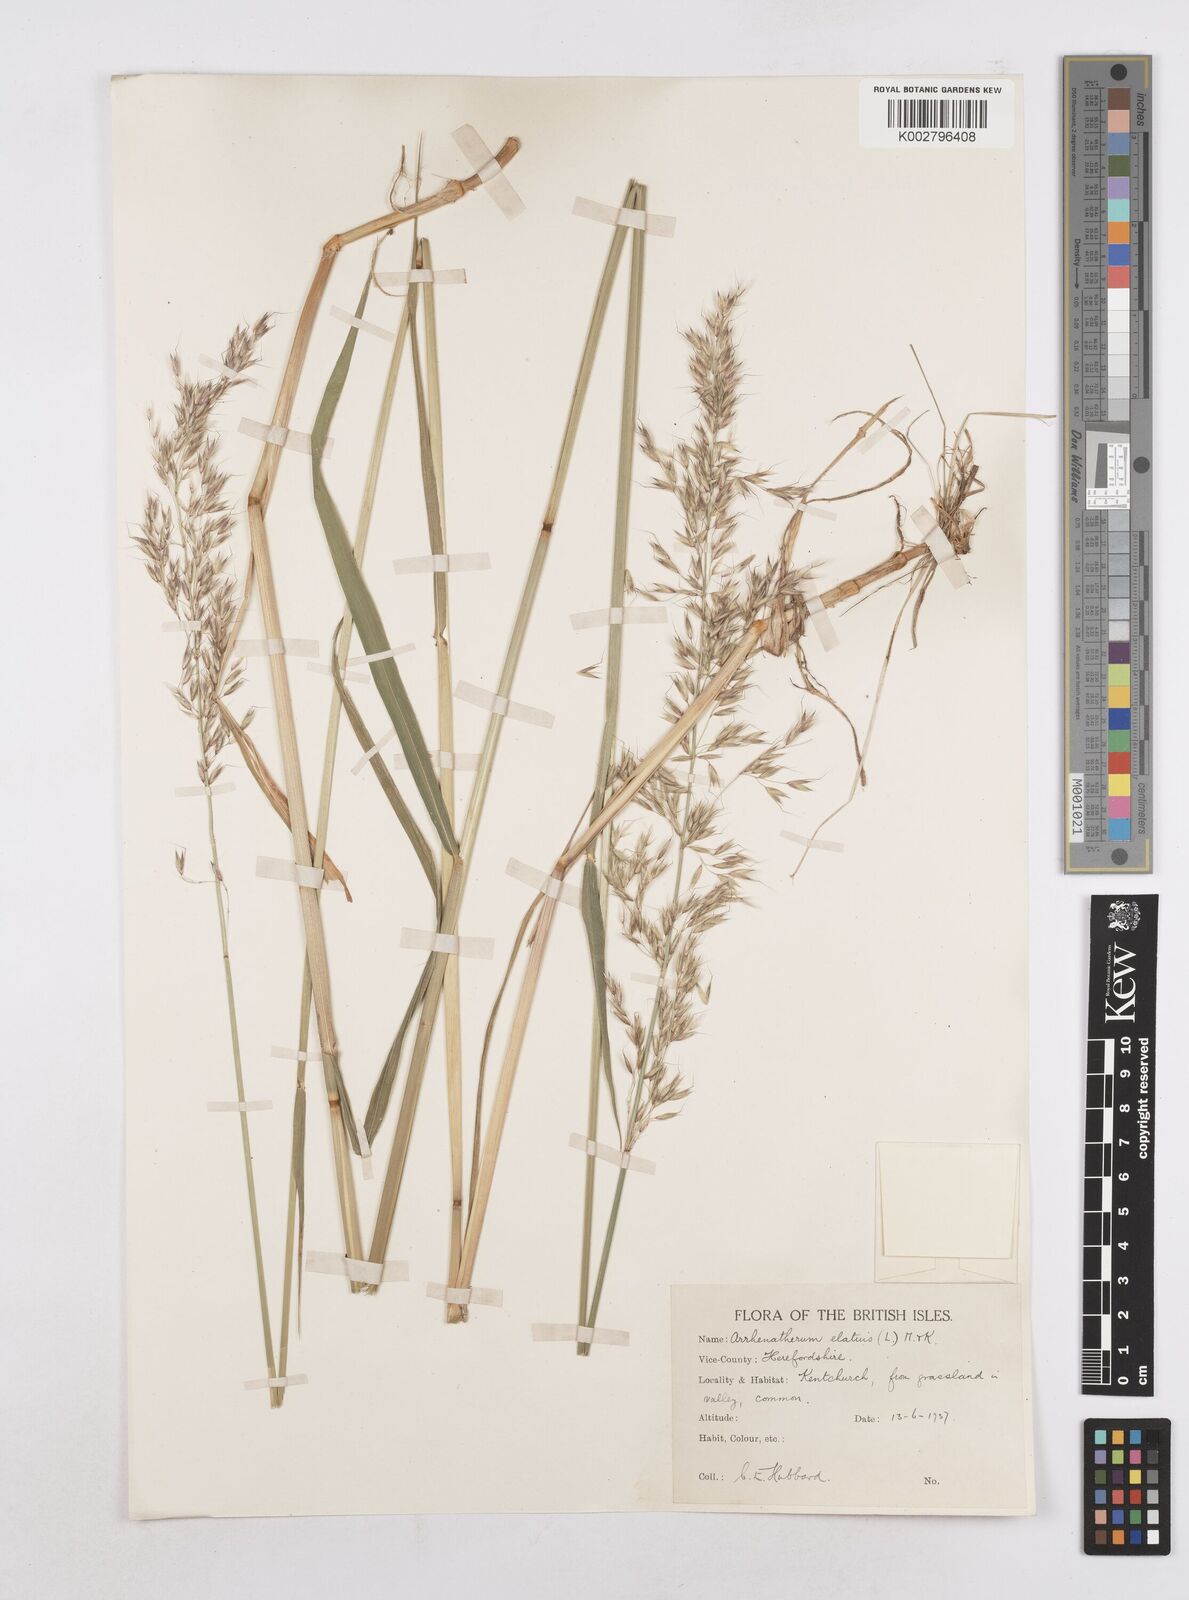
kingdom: Plantae
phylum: Tracheophyta
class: Liliopsida
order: Poales
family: Poaceae
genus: Arrhenatherum
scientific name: Arrhenatherum elatius
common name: Tall oatgrass
